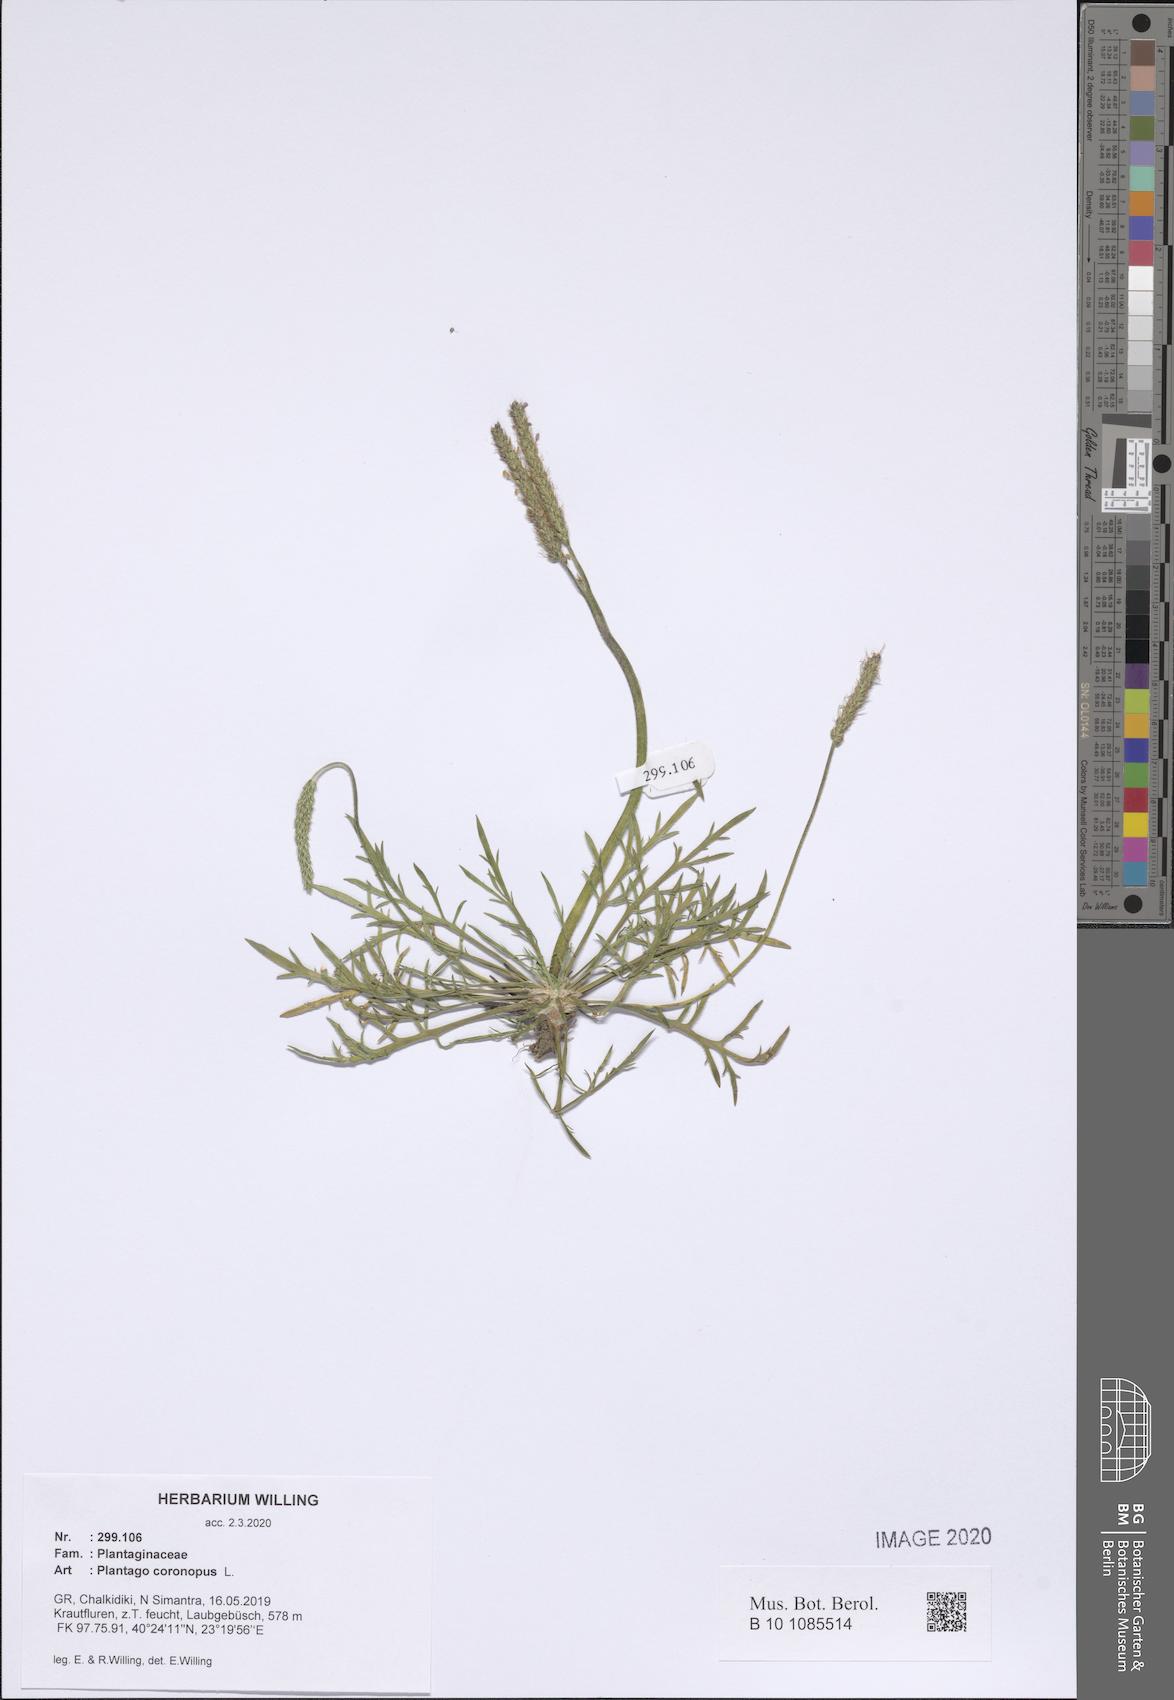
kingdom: Plantae
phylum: Tracheophyta
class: Magnoliopsida
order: Lamiales
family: Plantaginaceae
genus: Plantago
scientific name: Plantago coronopus
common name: Buck's-horn plantain
